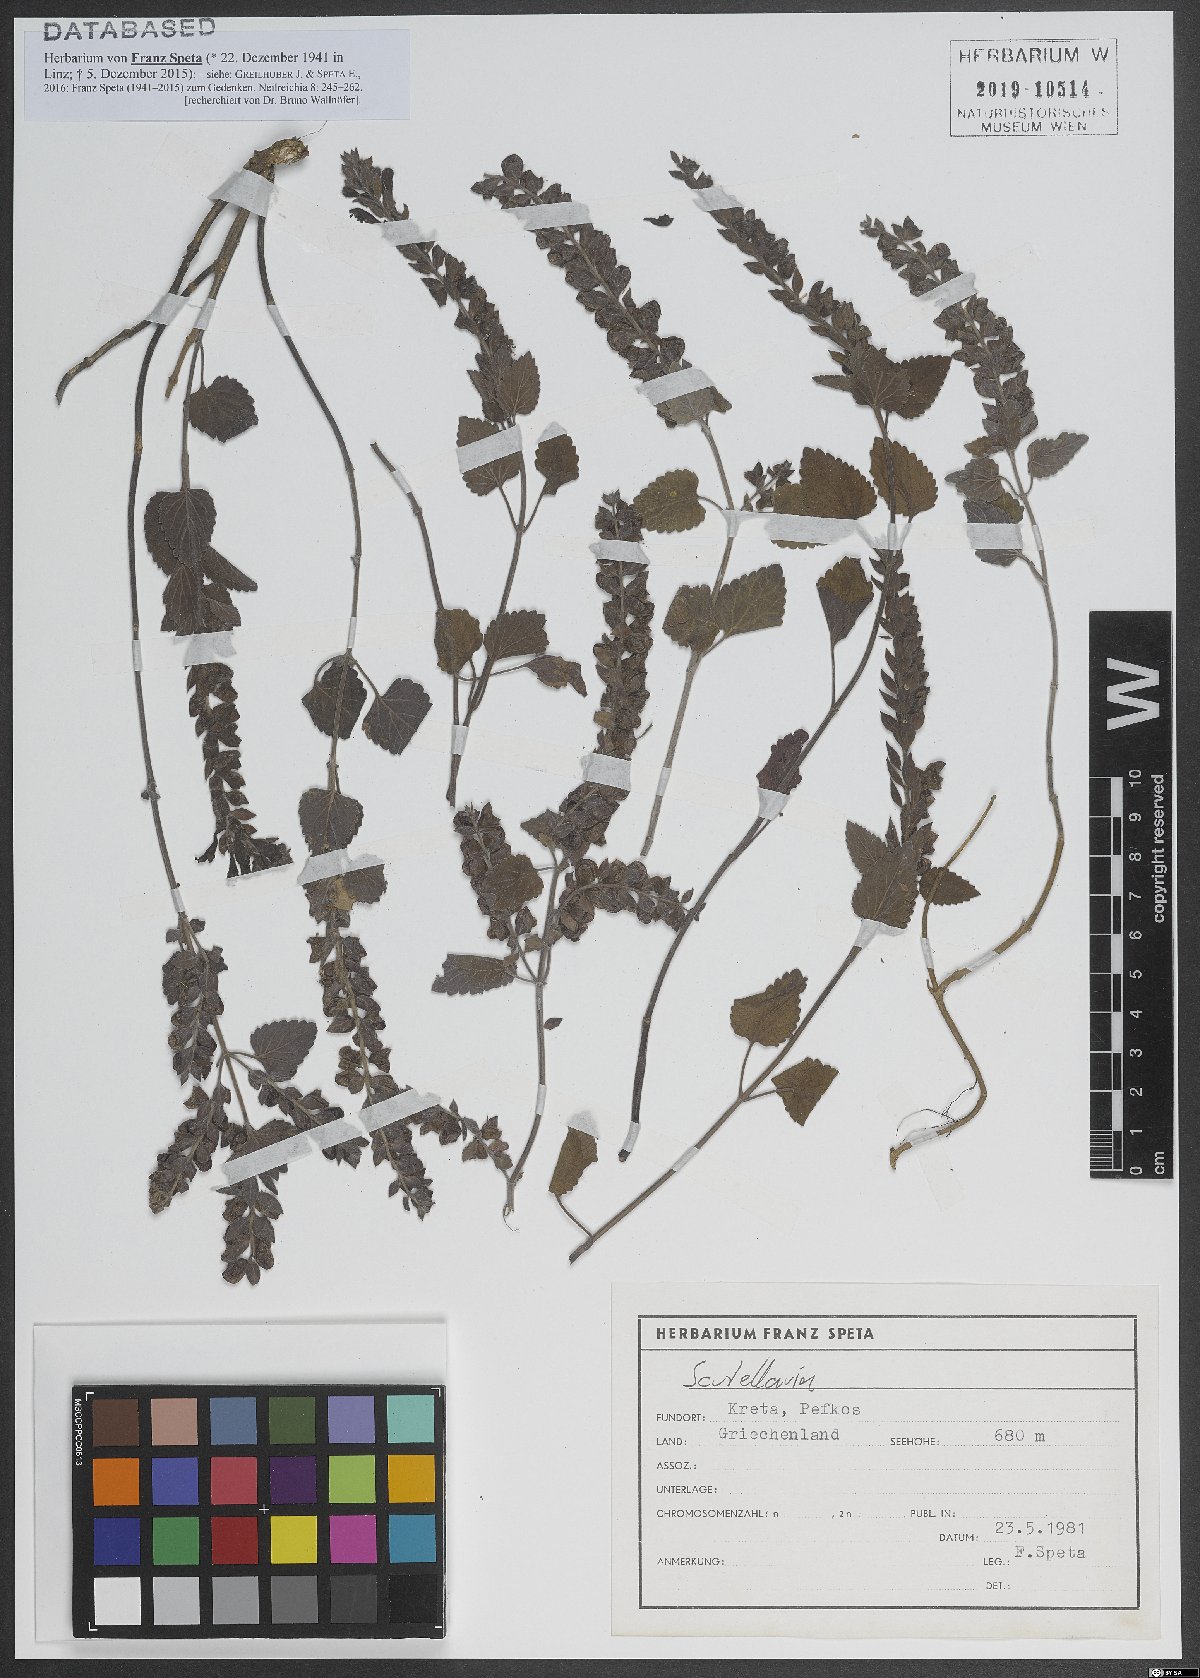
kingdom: Plantae
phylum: Tracheophyta
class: Magnoliopsida
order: Lamiales
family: Lamiaceae
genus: Scutellaria
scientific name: Scutellaria
